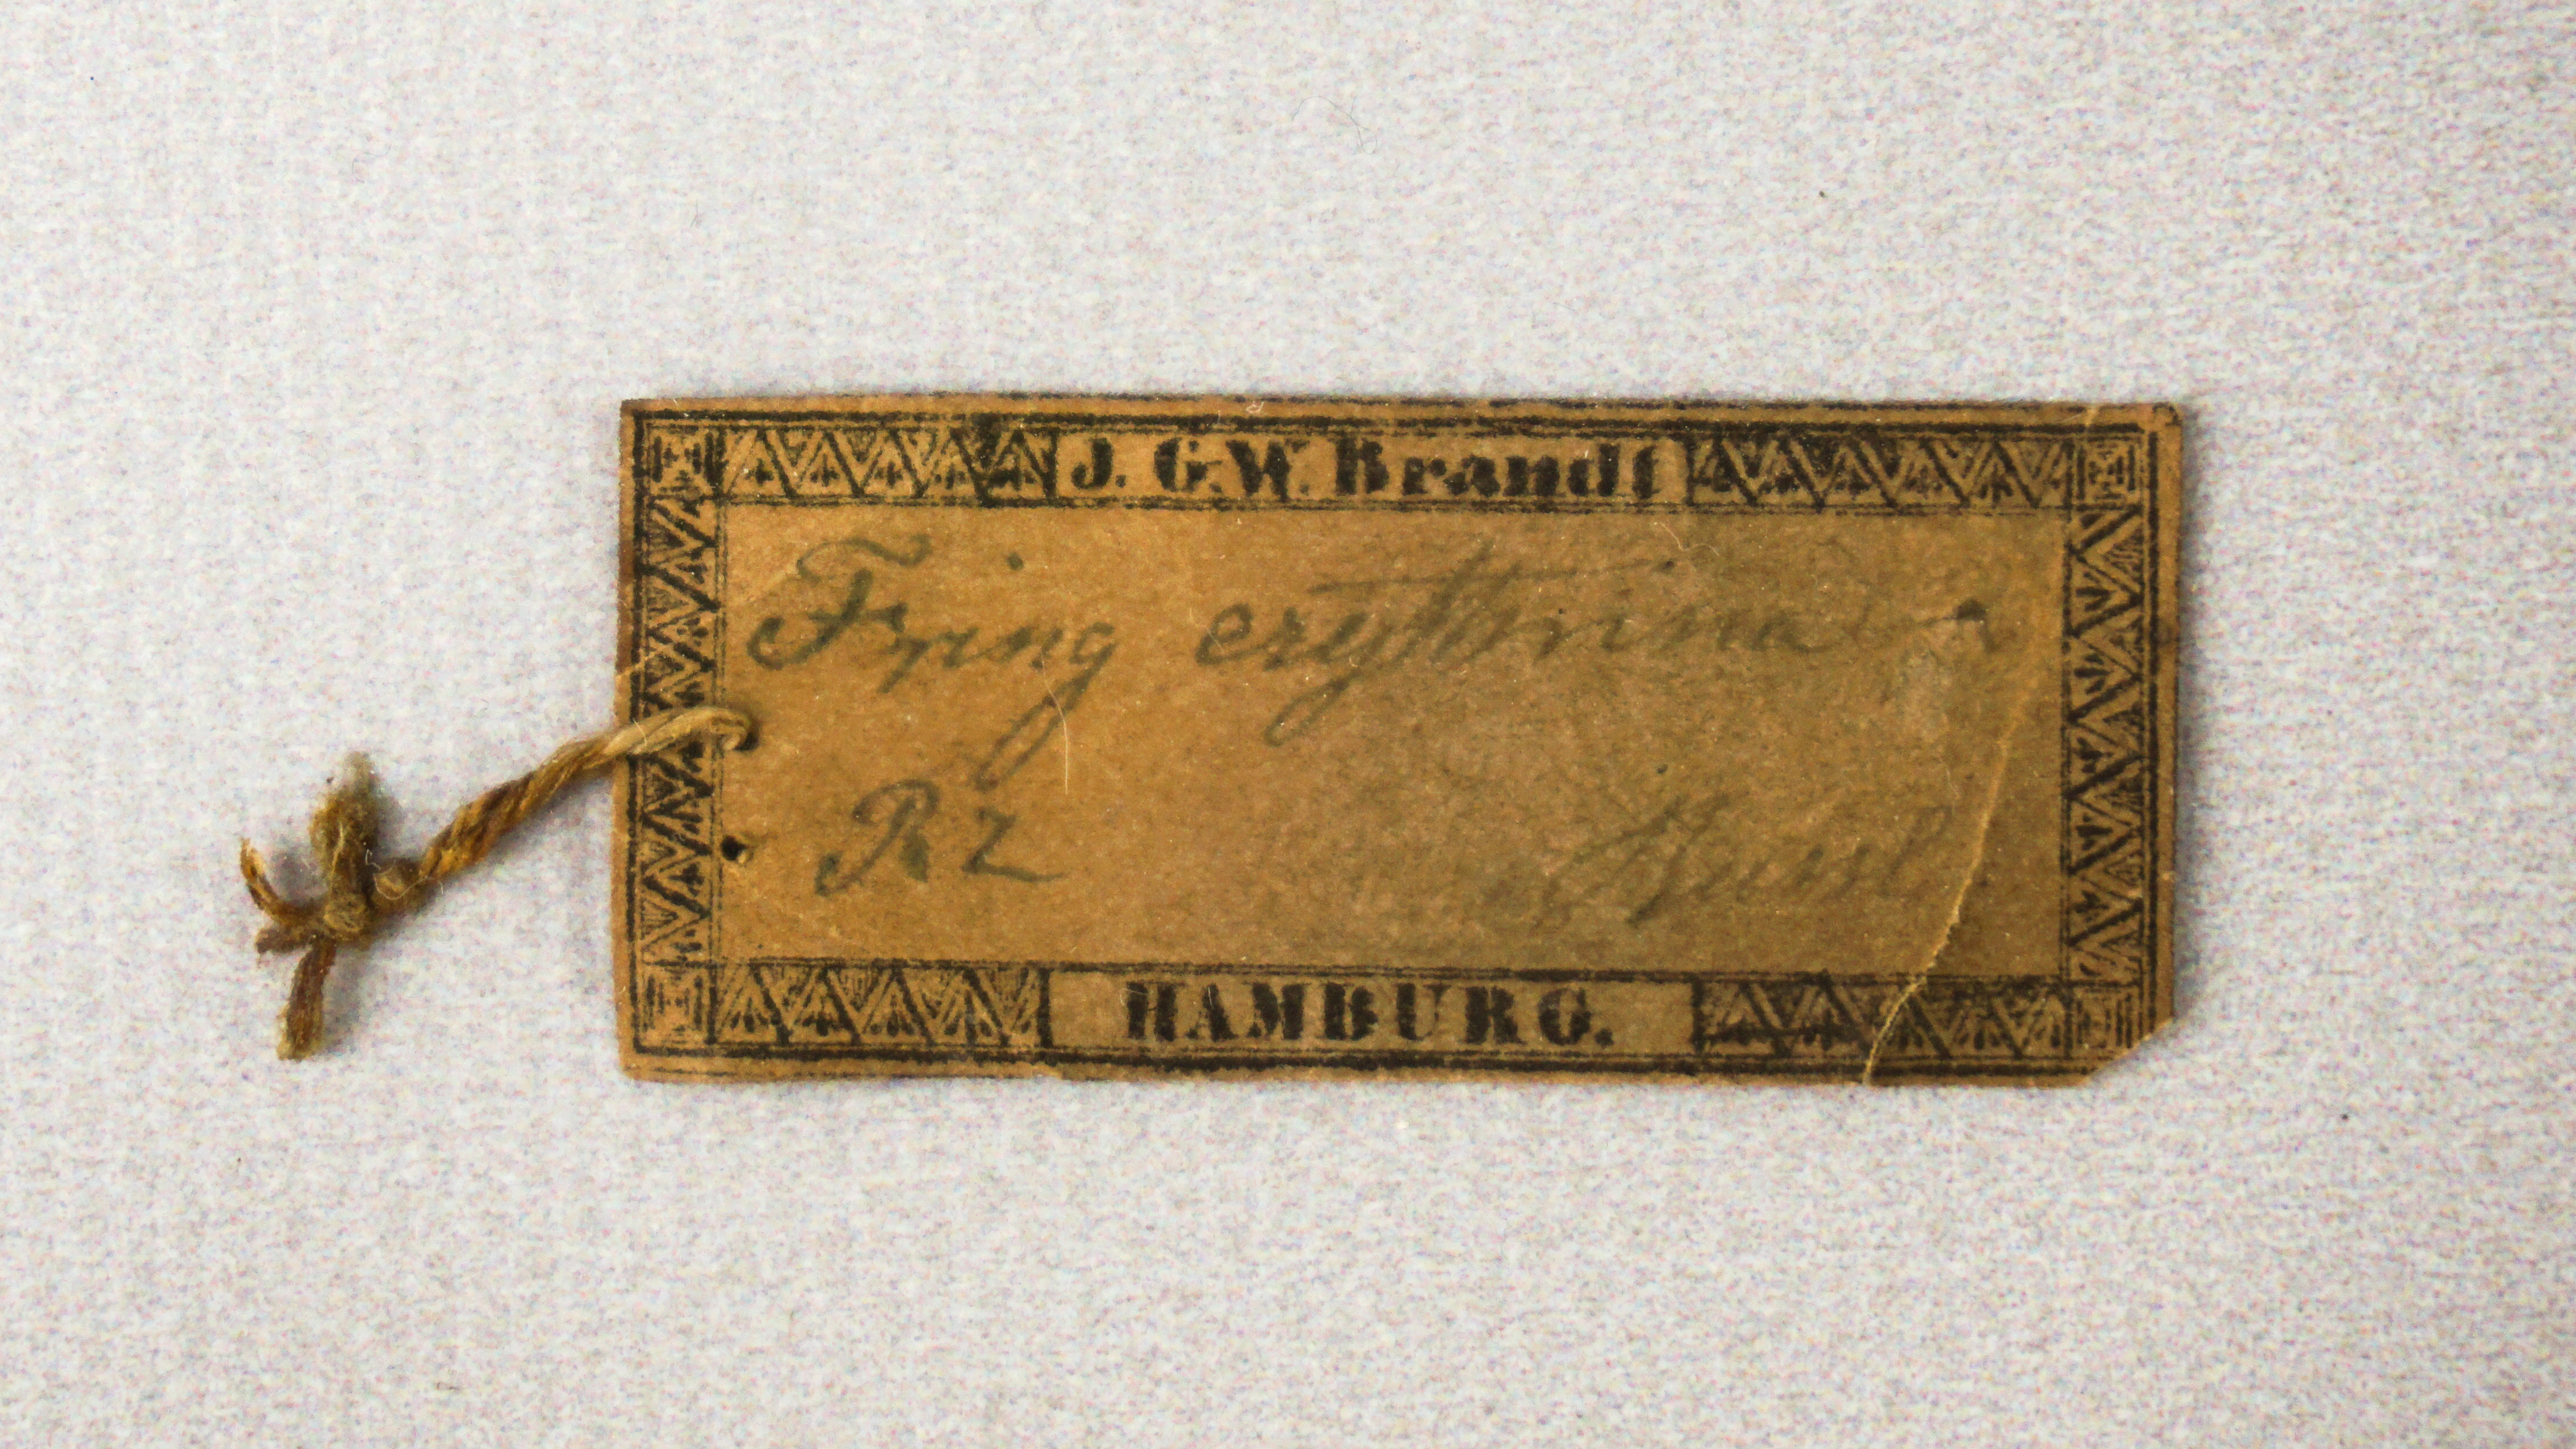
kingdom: Animalia
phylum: Chordata
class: Aves
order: Passeriformes
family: Fringillidae
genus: Carpodacus
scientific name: Carpodacus erythrinus
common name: Common rosefinch
